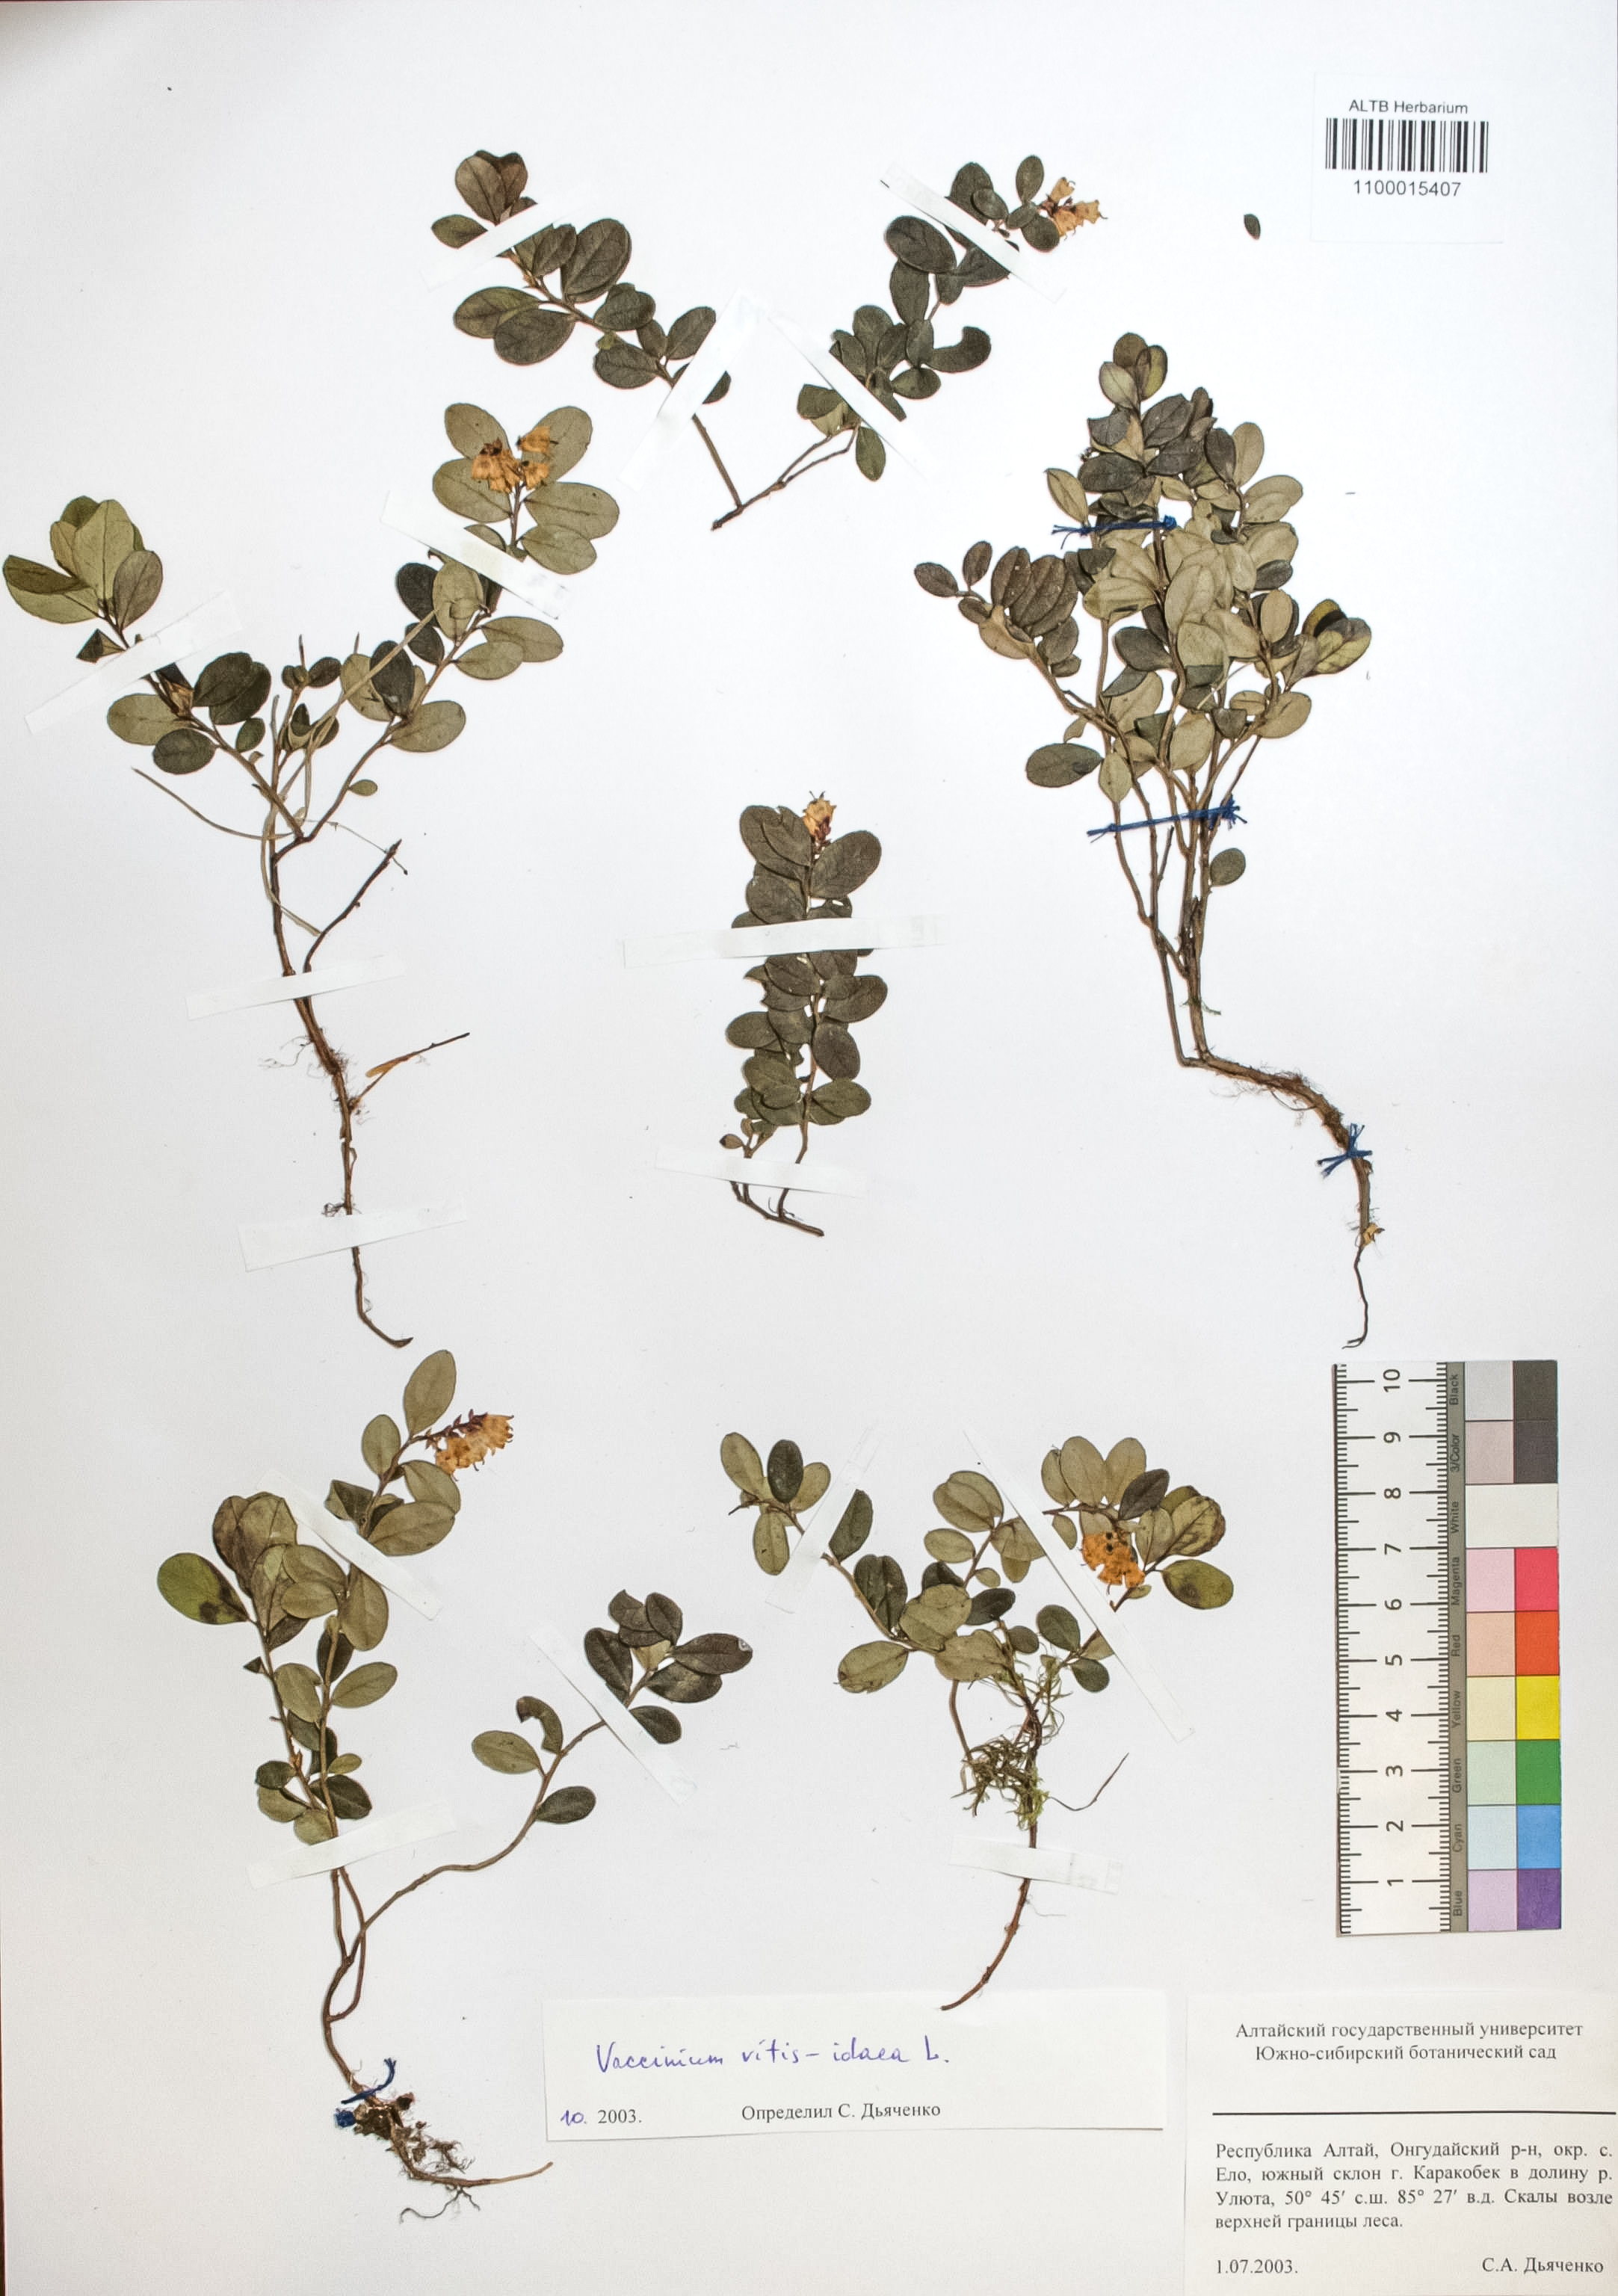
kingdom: Plantae
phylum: Tracheophyta
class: Magnoliopsida
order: Ericales
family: Ericaceae
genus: Vaccinium
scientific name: Vaccinium vitis-idaea
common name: Cowberry
